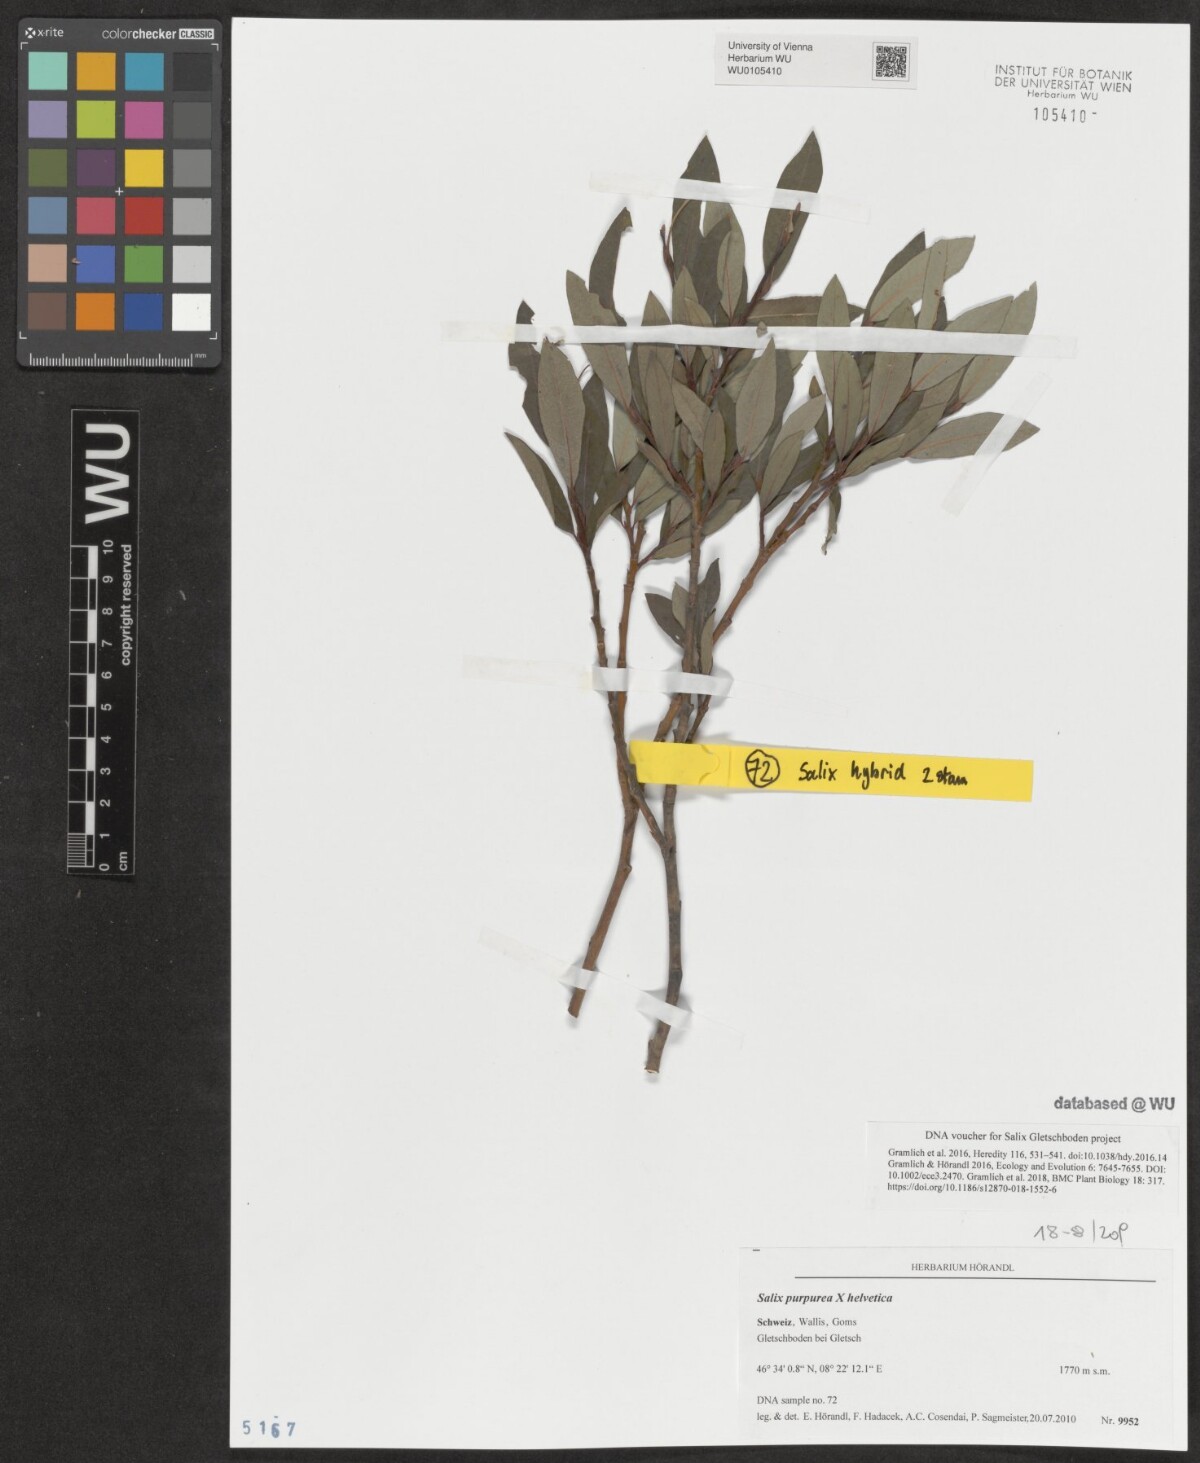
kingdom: Plantae
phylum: Tracheophyta
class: Magnoliopsida
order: Malpighiales
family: Salicaceae
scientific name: Salicaceae
